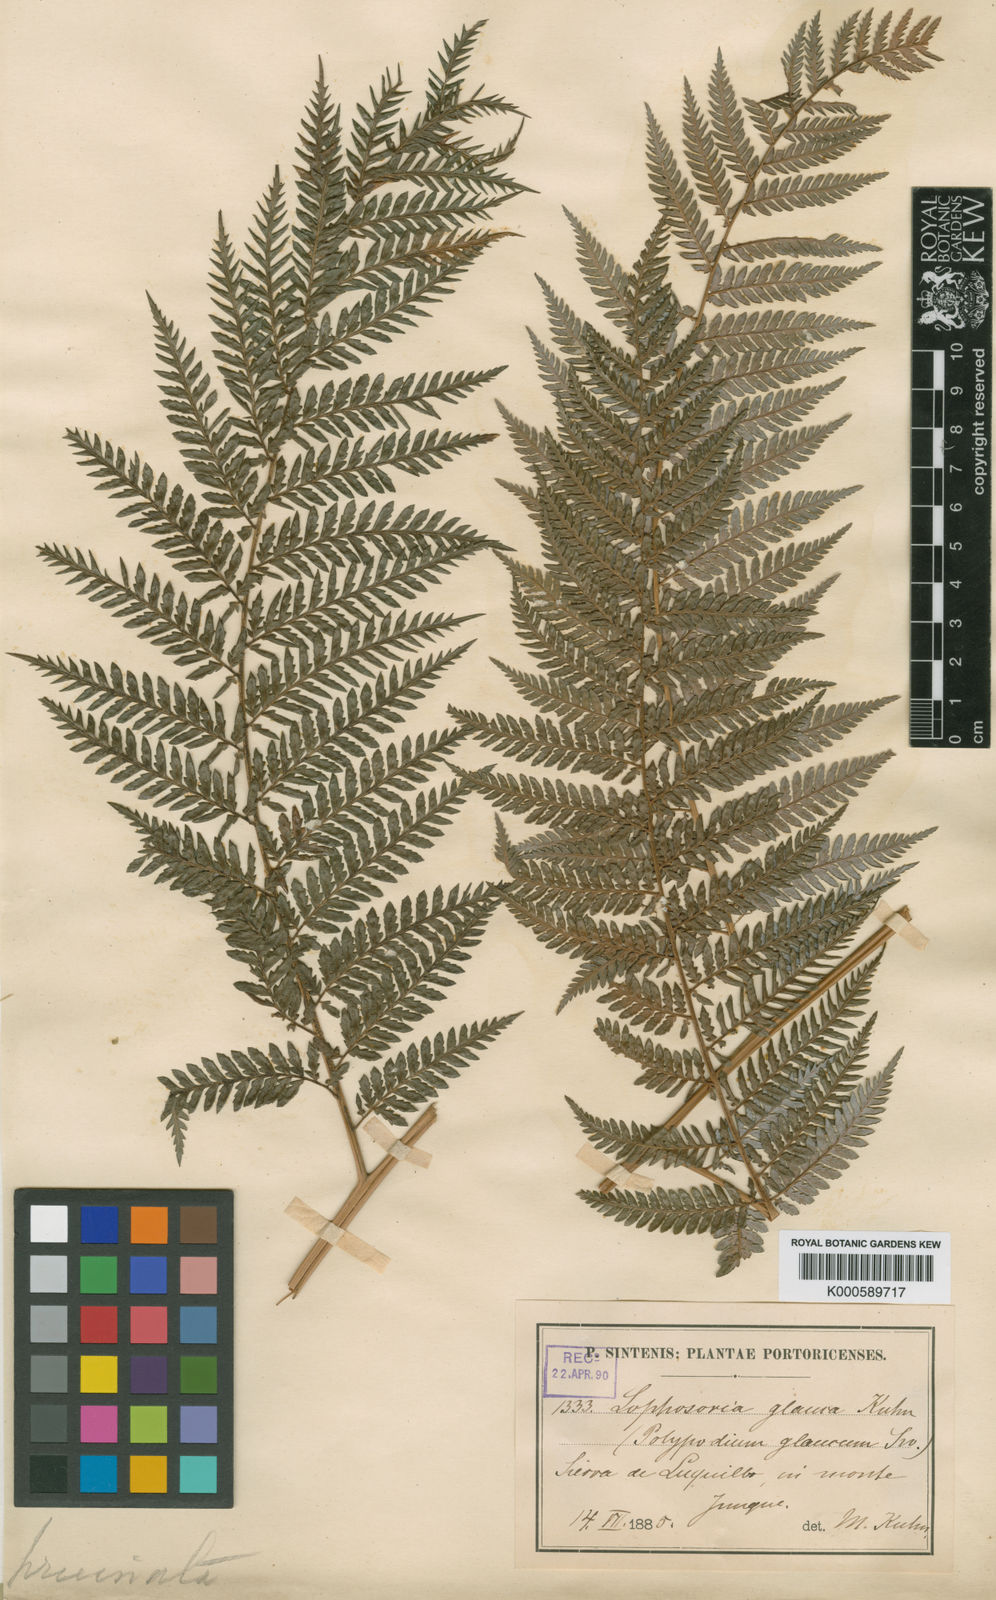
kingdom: Plantae
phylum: Tracheophyta
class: Polypodiopsida
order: Cyatheales
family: Dicksoniaceae
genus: Lophosoria
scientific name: Lophosoria quadripinnata
